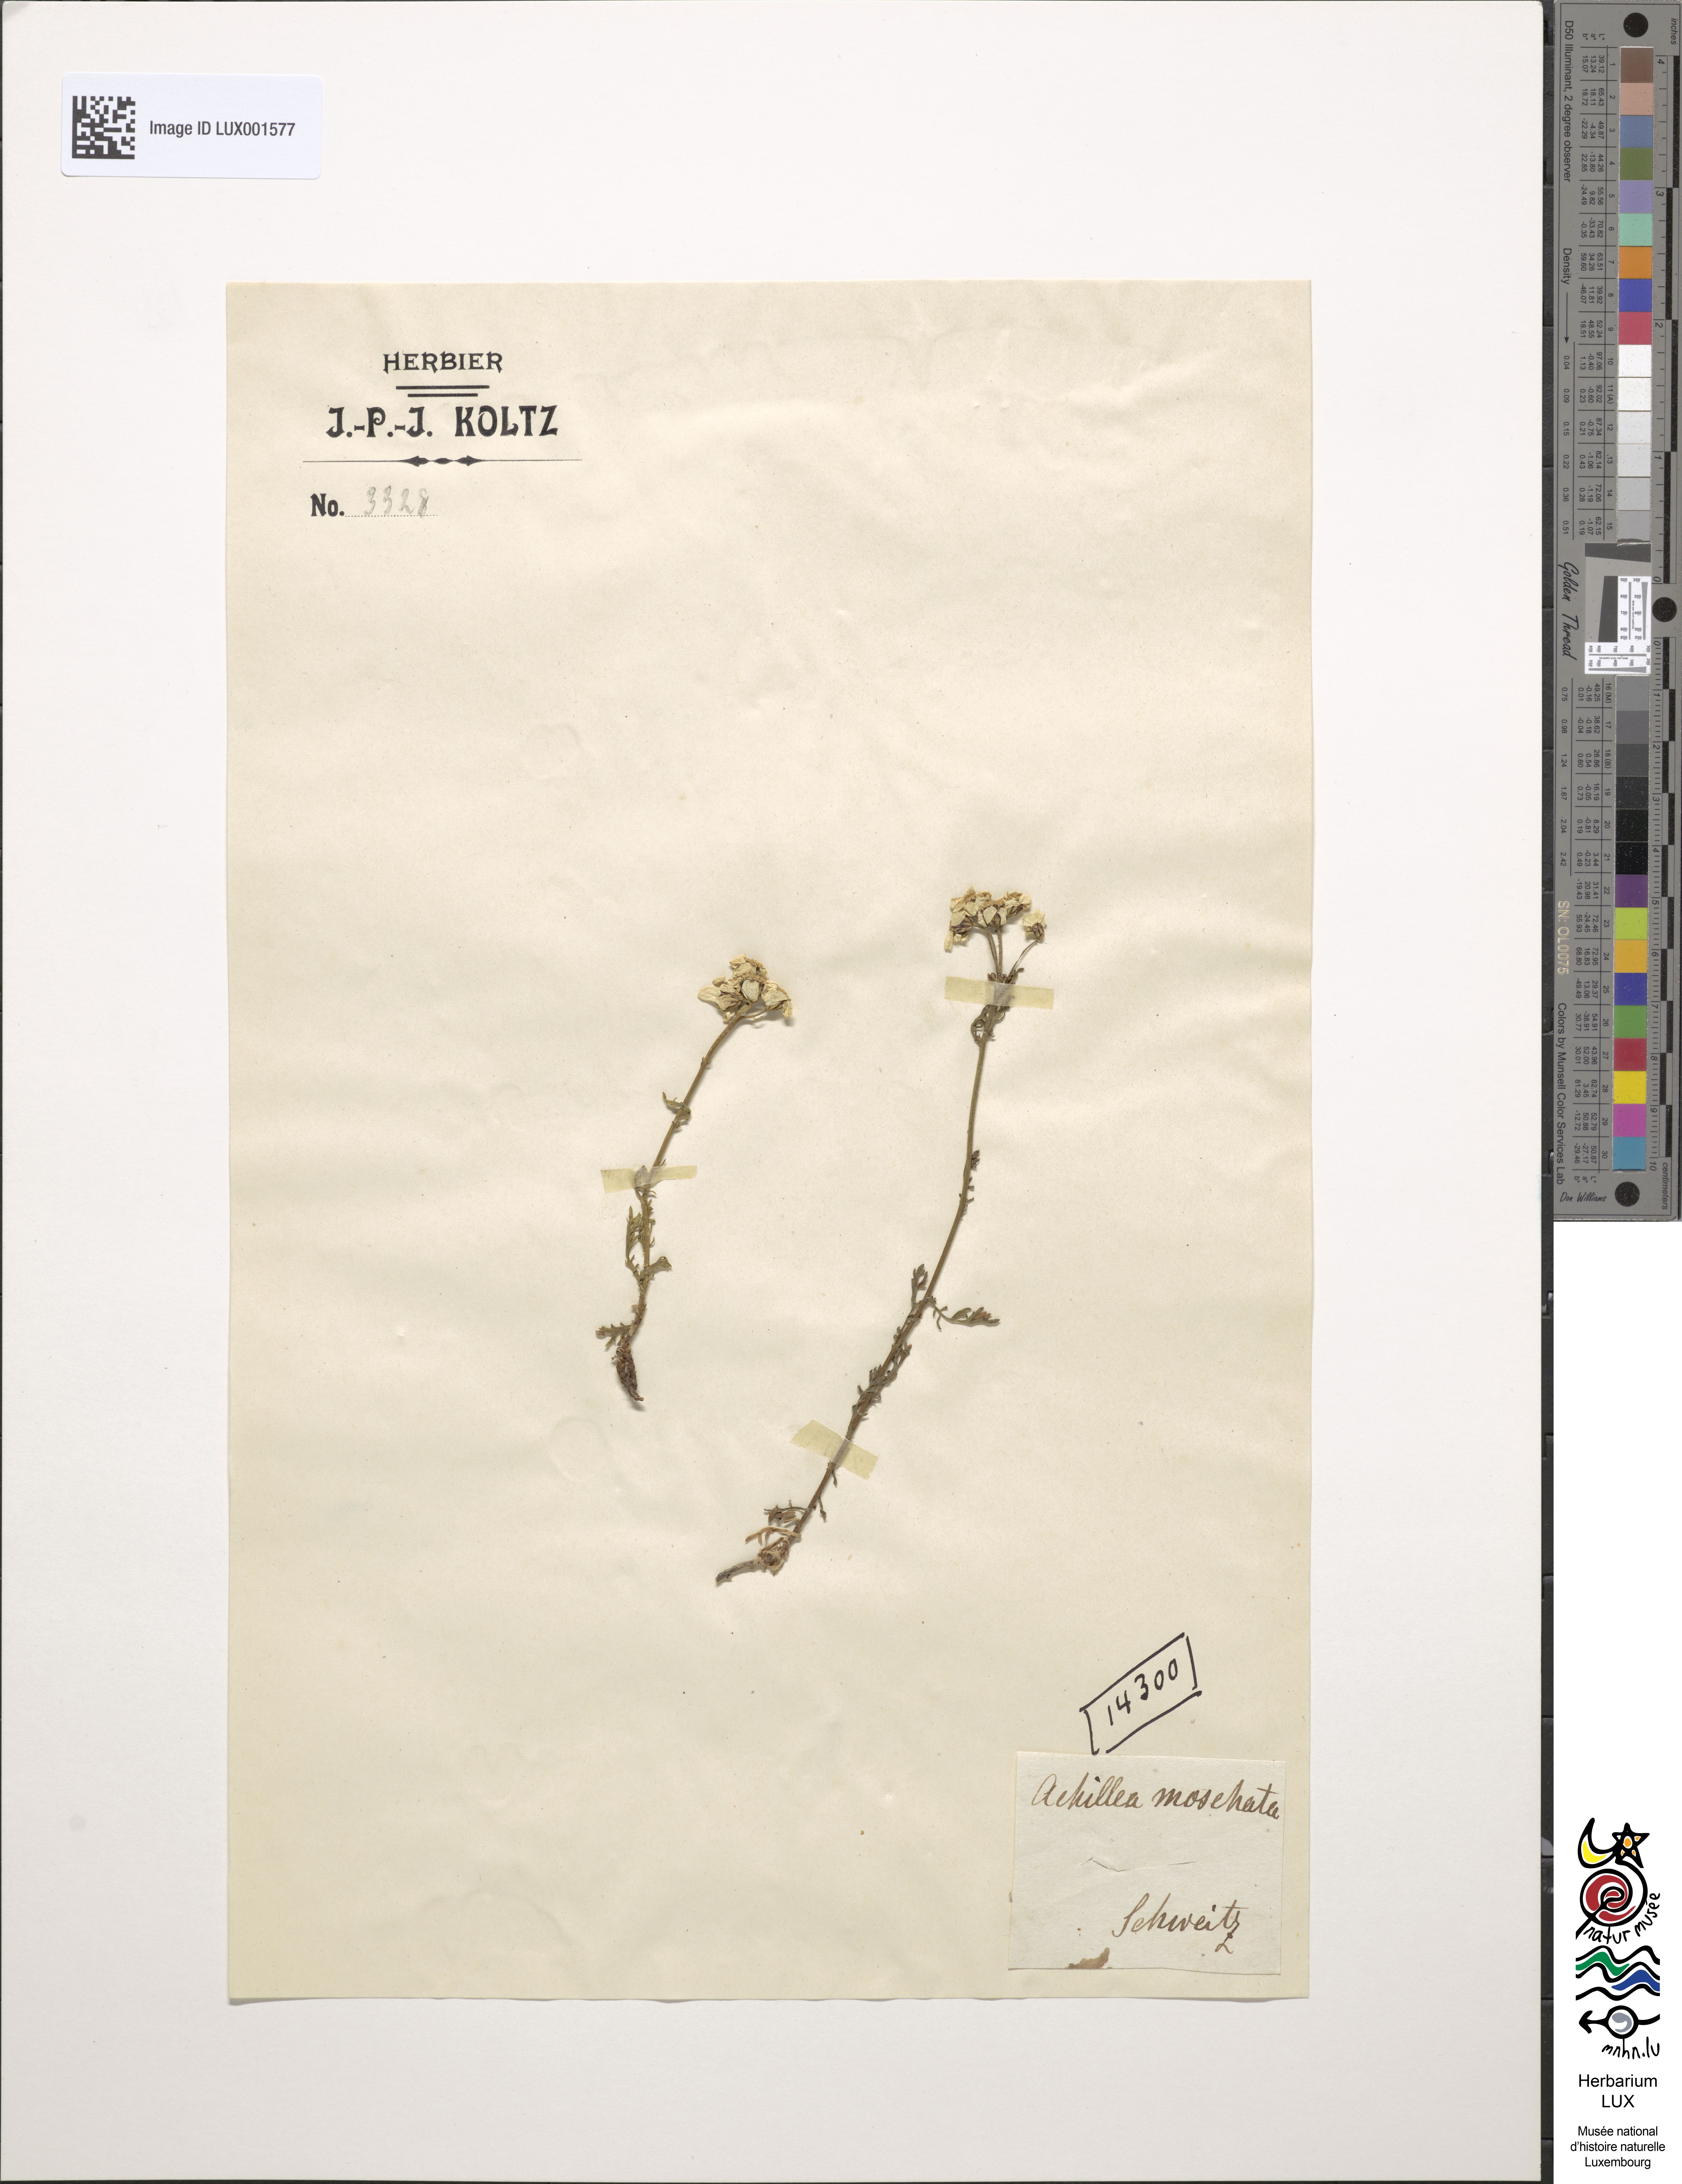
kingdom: Plantae
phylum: Tracheophyta
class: Magnoliopsida
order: Asterales
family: Asteraceae
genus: Achillea
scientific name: Achillea erba-rotta
